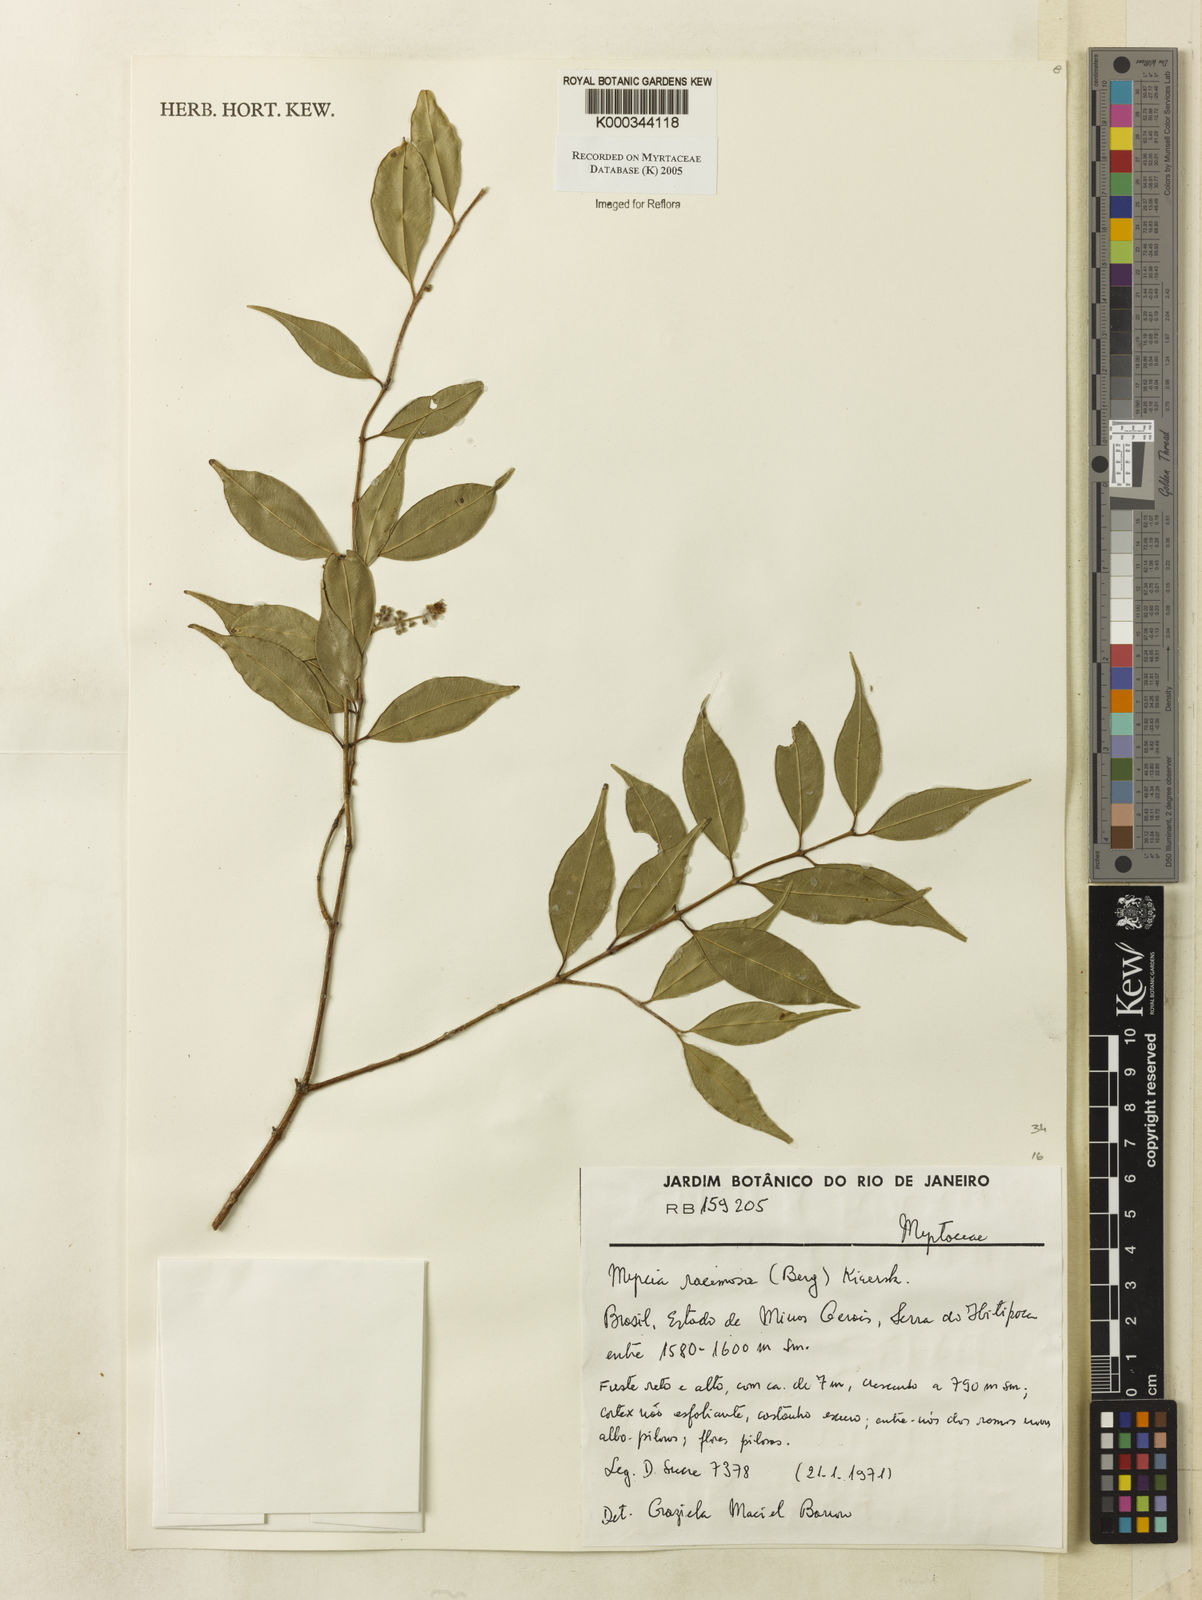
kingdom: Plantae
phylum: Tracheophyta
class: Magnoliopsida
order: Myrtales
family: Myrtaceae
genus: Myrcia
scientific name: Myrcia racemosa
